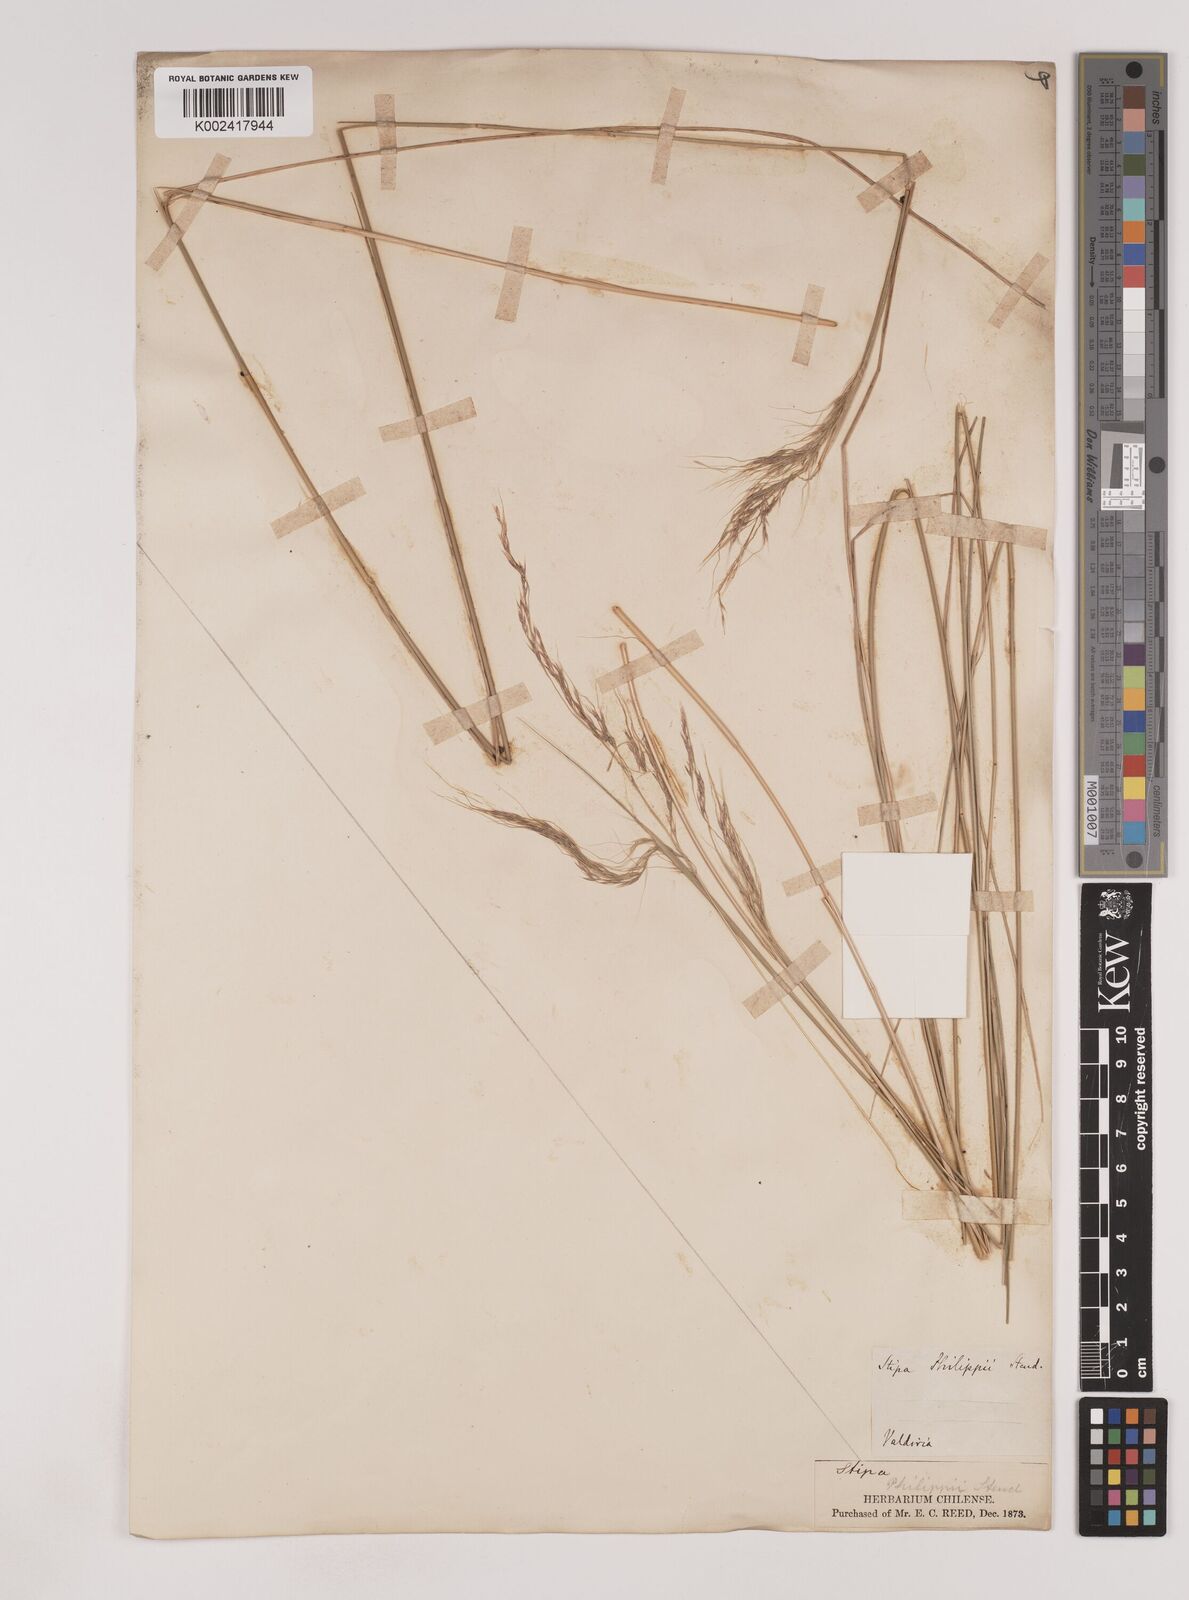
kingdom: Plantae
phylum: Tracheophyta
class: Liliopsida
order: Poales
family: Poaceae
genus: Nassella
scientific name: Nassella philippii
